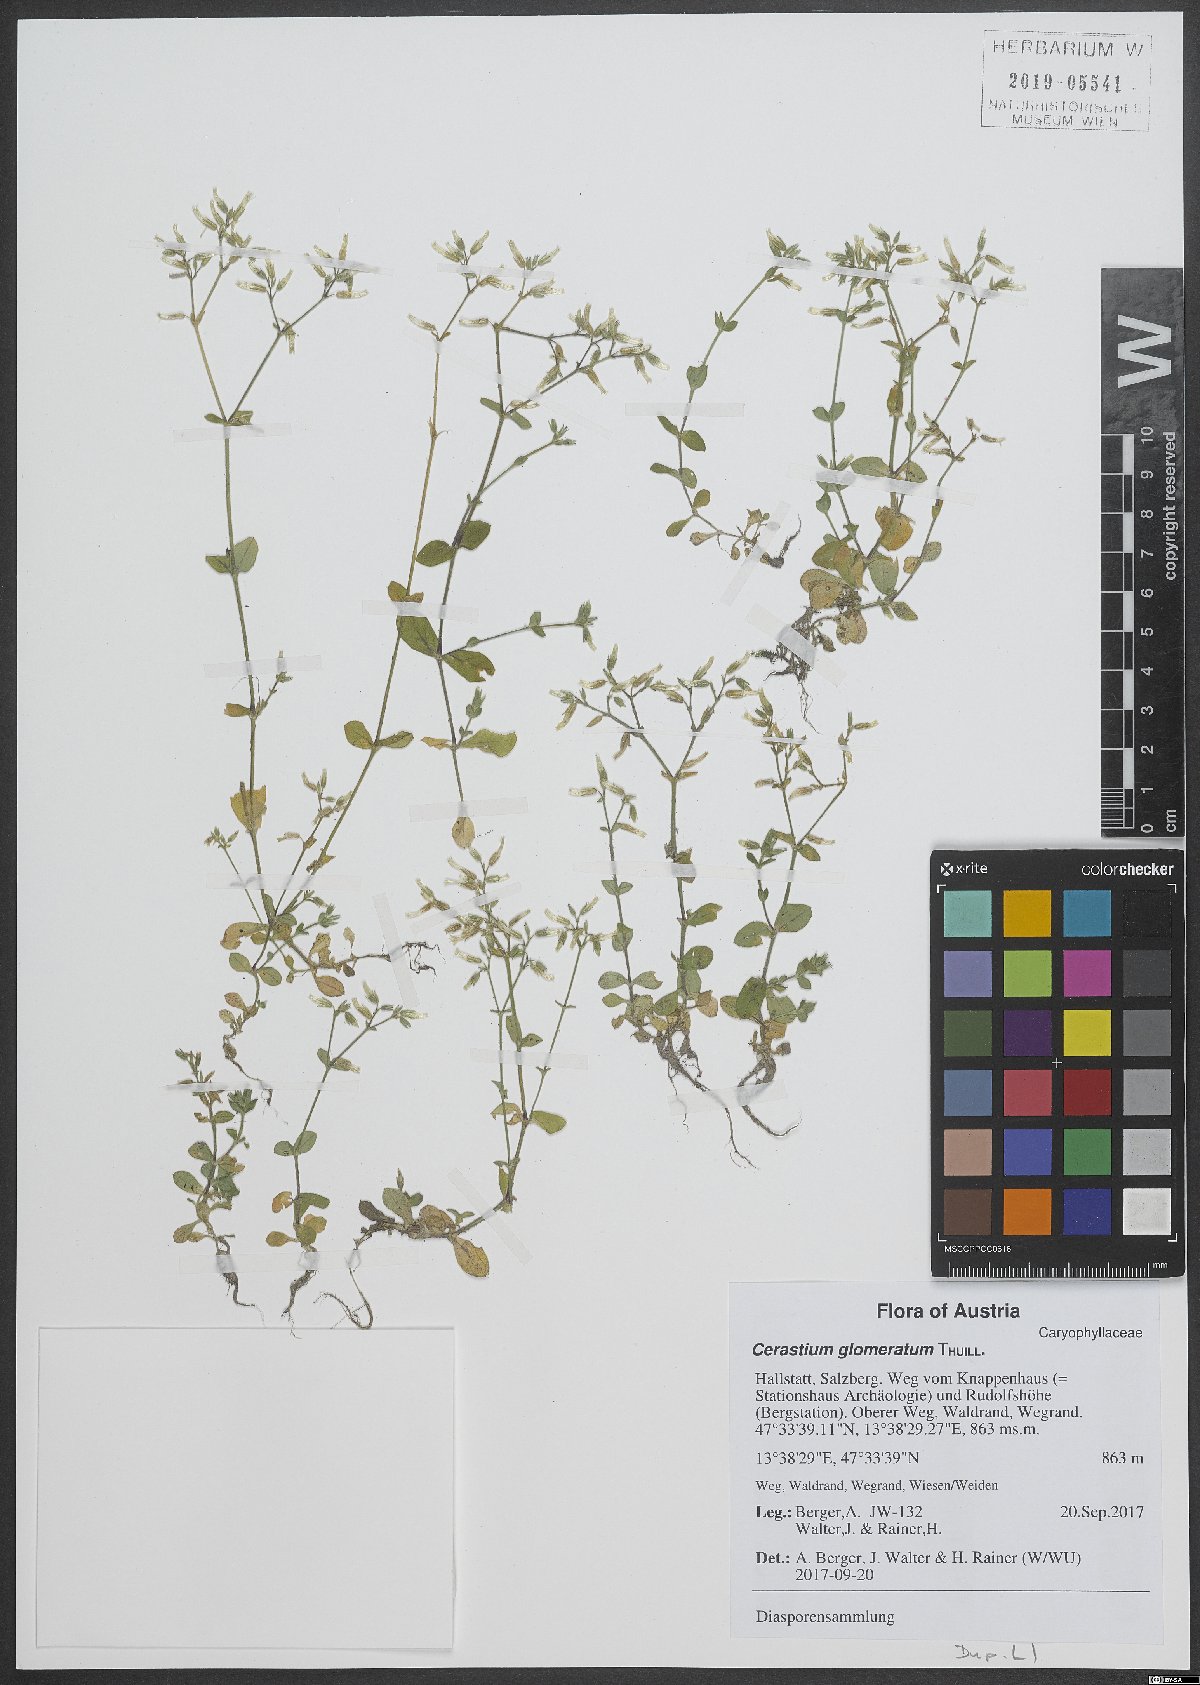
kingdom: Plantae
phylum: Tracheophyta
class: Magnoliopsida
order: Caryophyllales
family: Caryophyllaceae
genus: Cerastium
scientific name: Cerastium glomeratum
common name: Sticky chickweed
